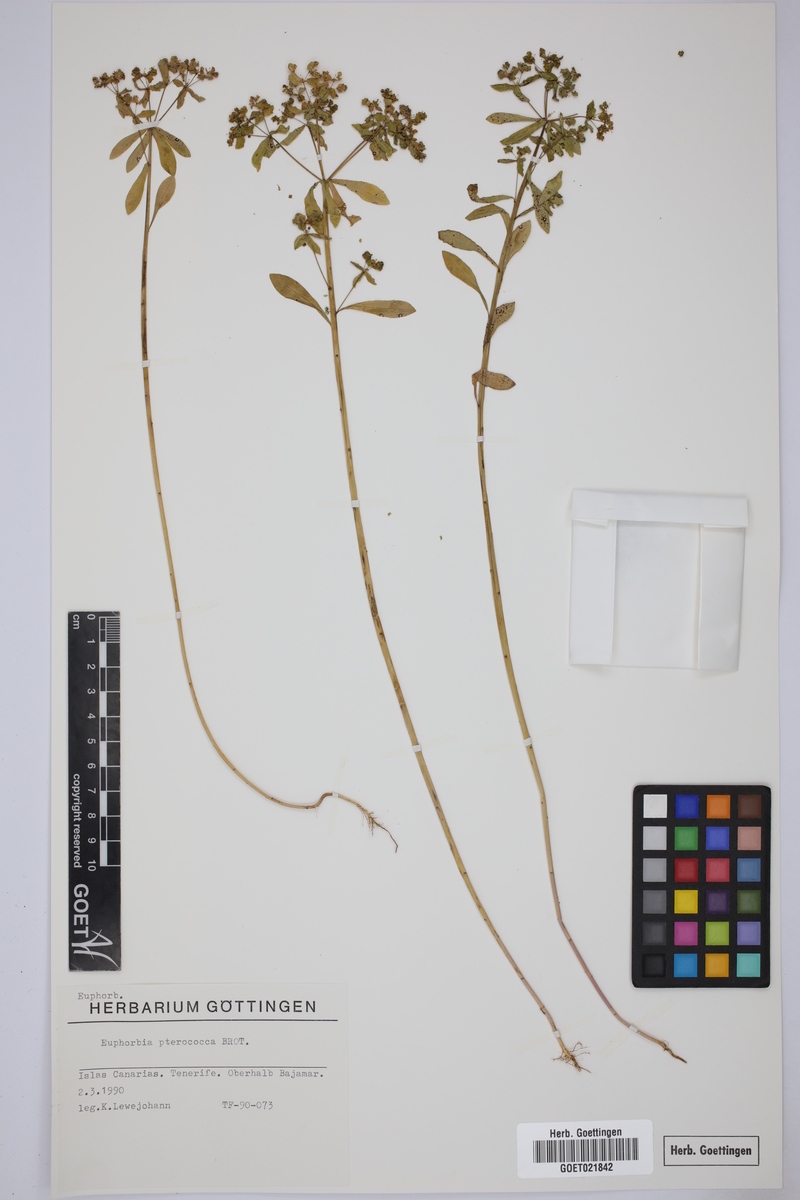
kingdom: Plantae
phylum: Tracheophyta
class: Magnoliopsida
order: Malpighiales
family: Euphorbiaceae
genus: Euphorbia
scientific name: Euphorbia pterococca
